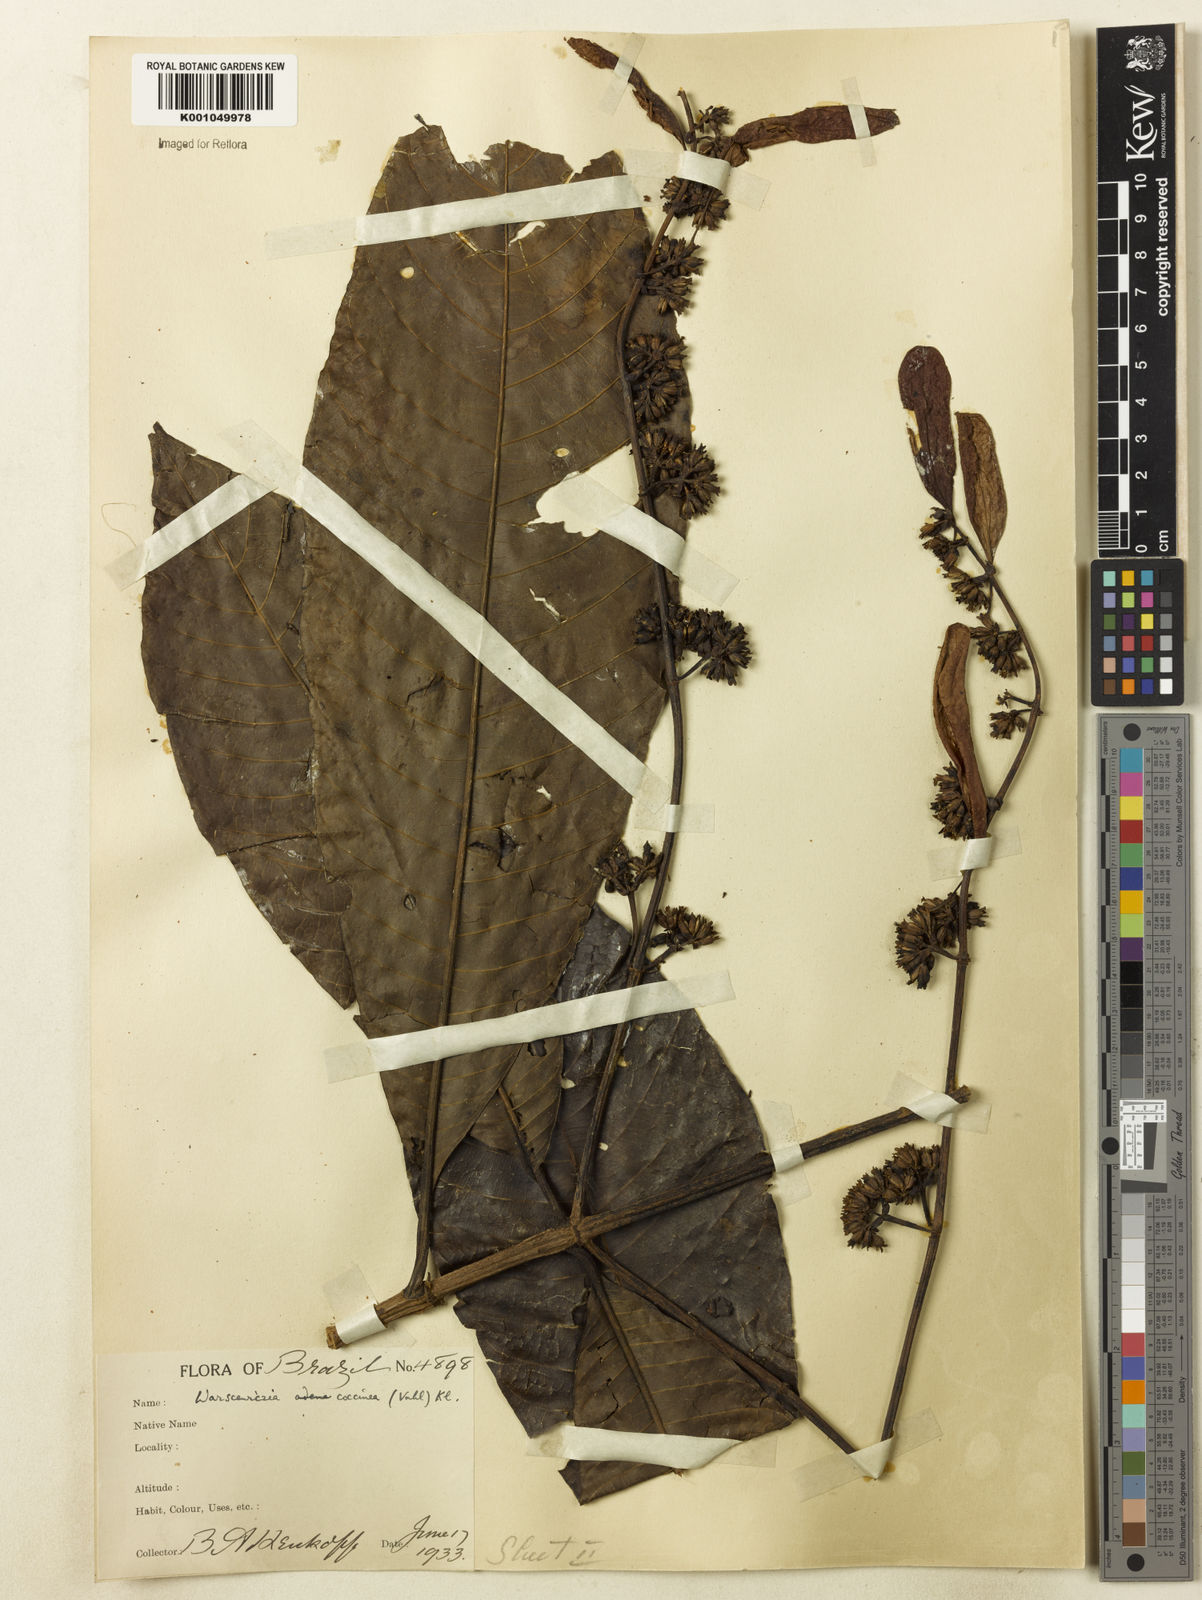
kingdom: Plantae
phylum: Tracheophyta
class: Magnoliopsida
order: Gentianales
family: Rubiaceae
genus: Warszewiczia
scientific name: Warszewiczia coccinea
